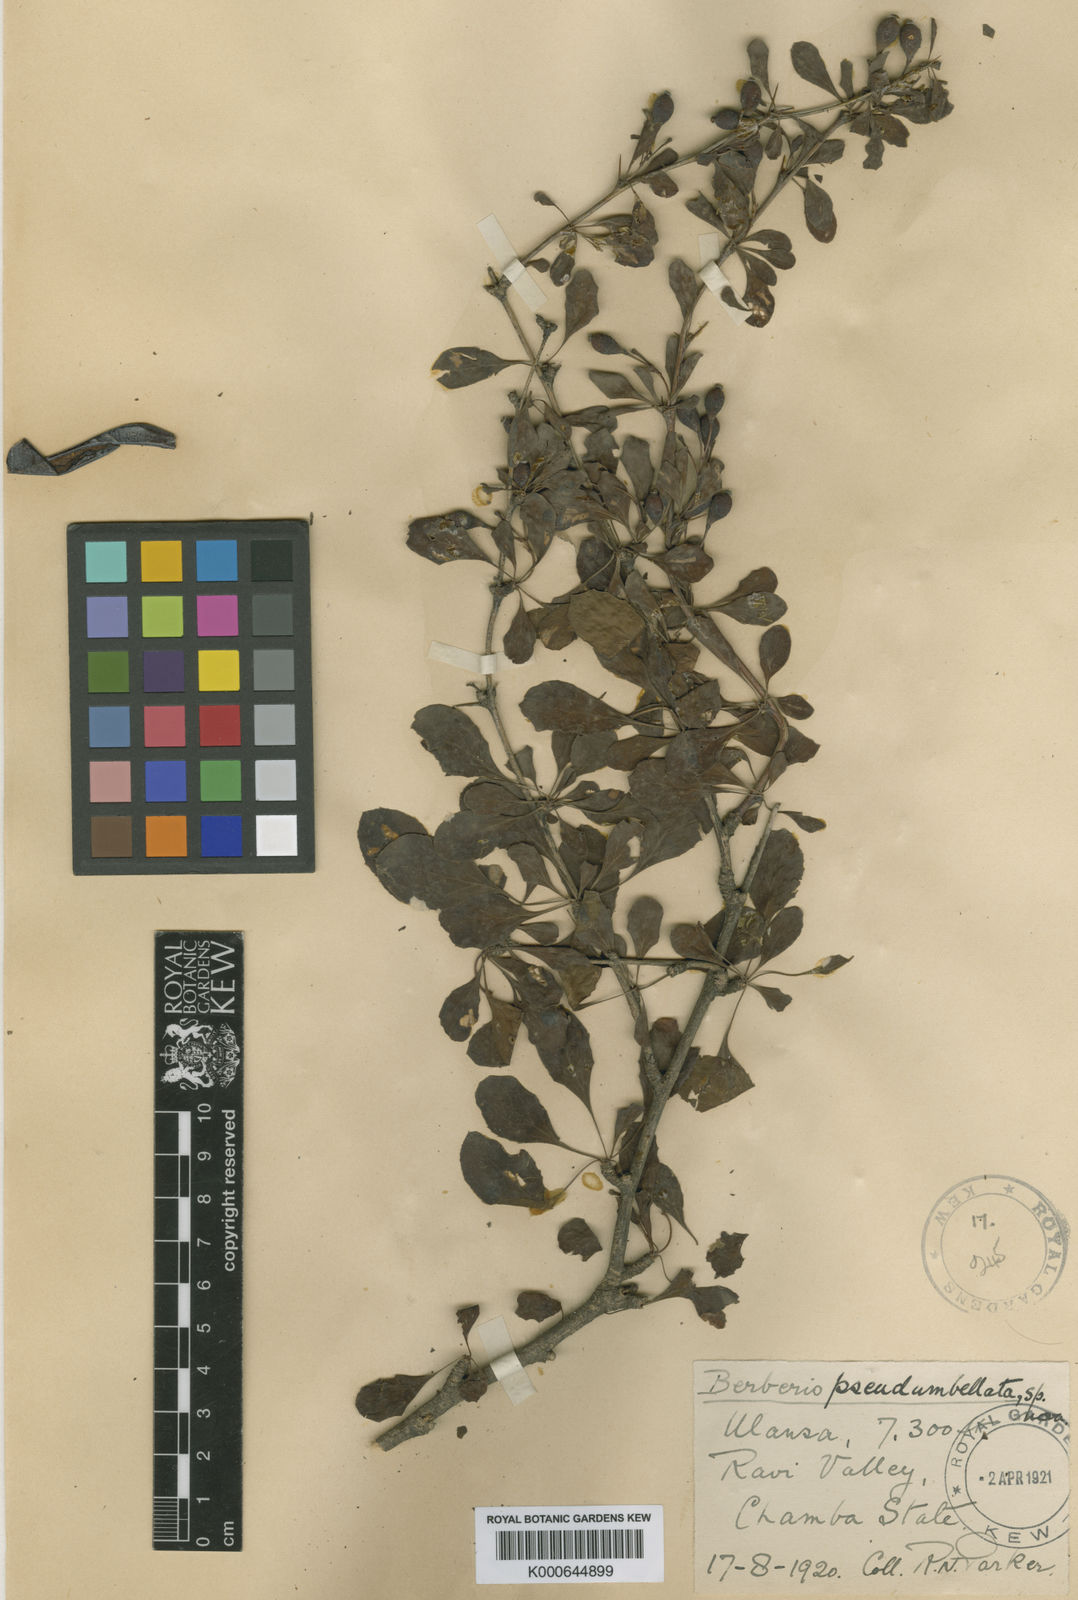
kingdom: Plantae
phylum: Tracheophyta
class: Magnoliopsida
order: Ranunculales
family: Berberidaceae
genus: Berberis
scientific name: Berberis pseudumbellata
